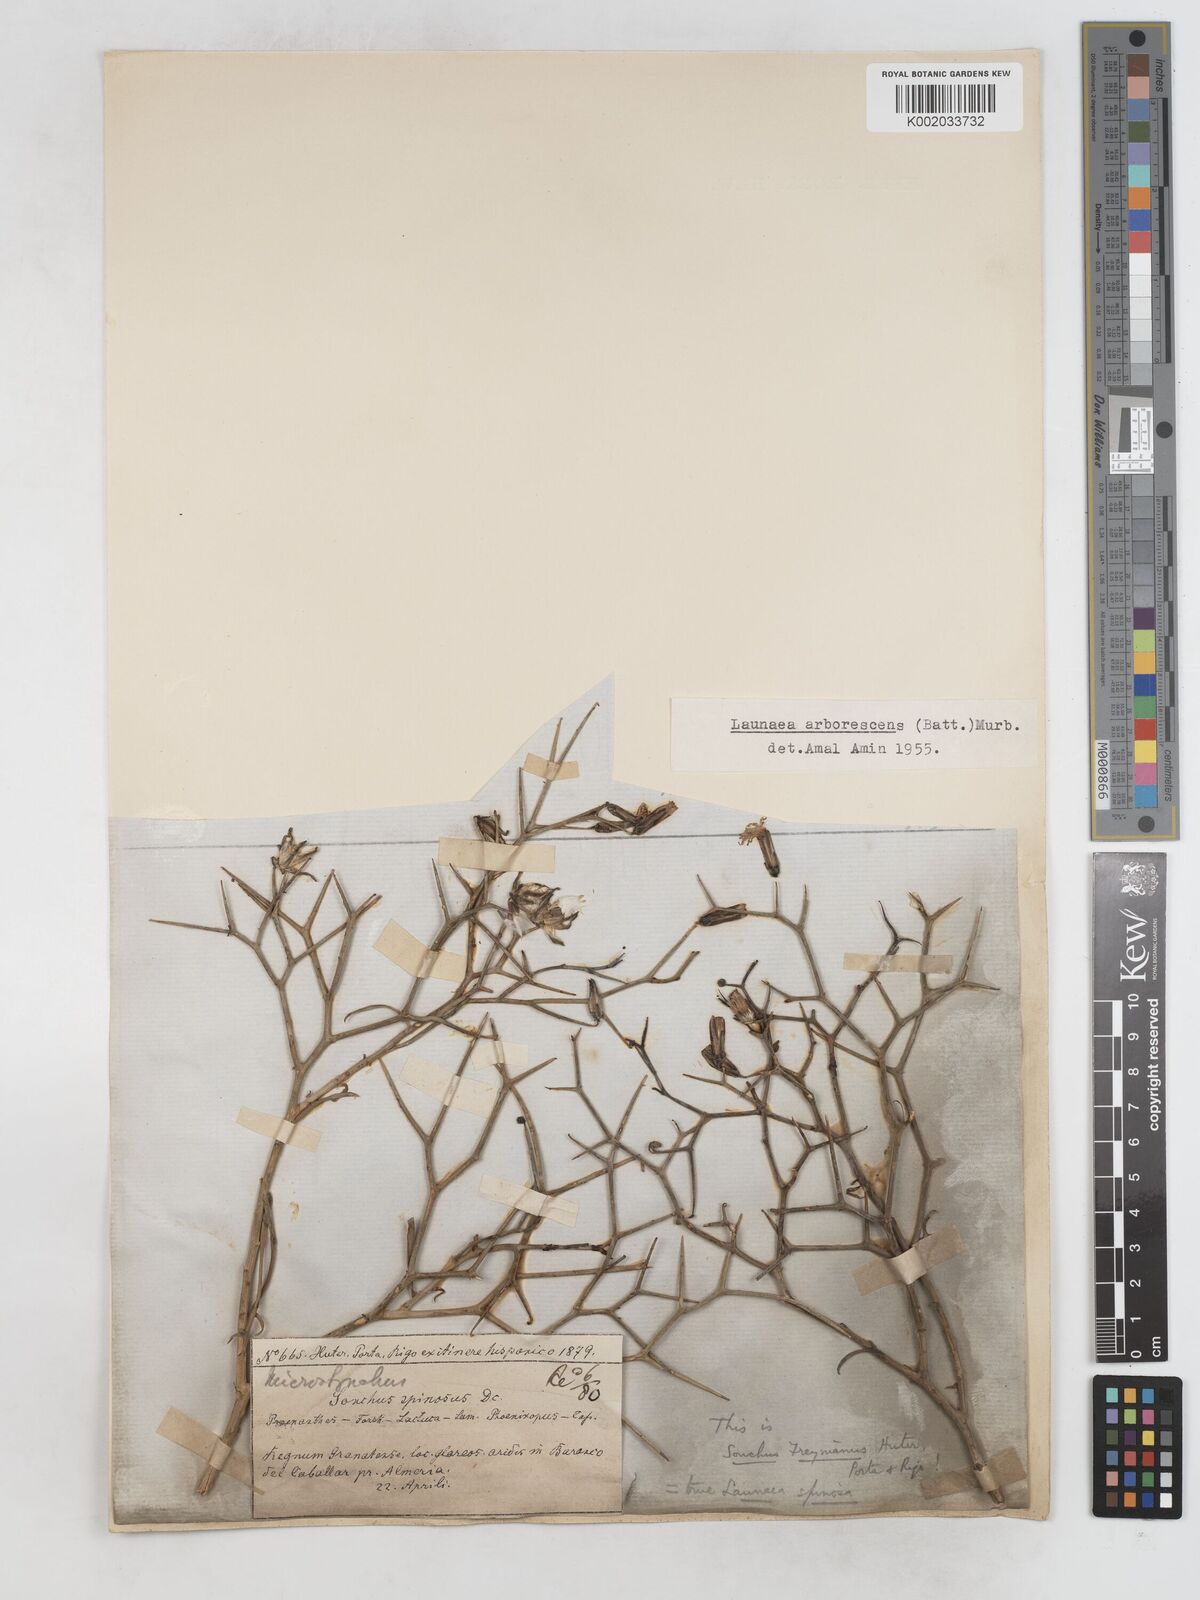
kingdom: Plantae
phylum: Tracheophyta
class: Magnoliopsida
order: Asterales
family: Asteraceae
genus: Launaea
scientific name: Launaea arborescens
